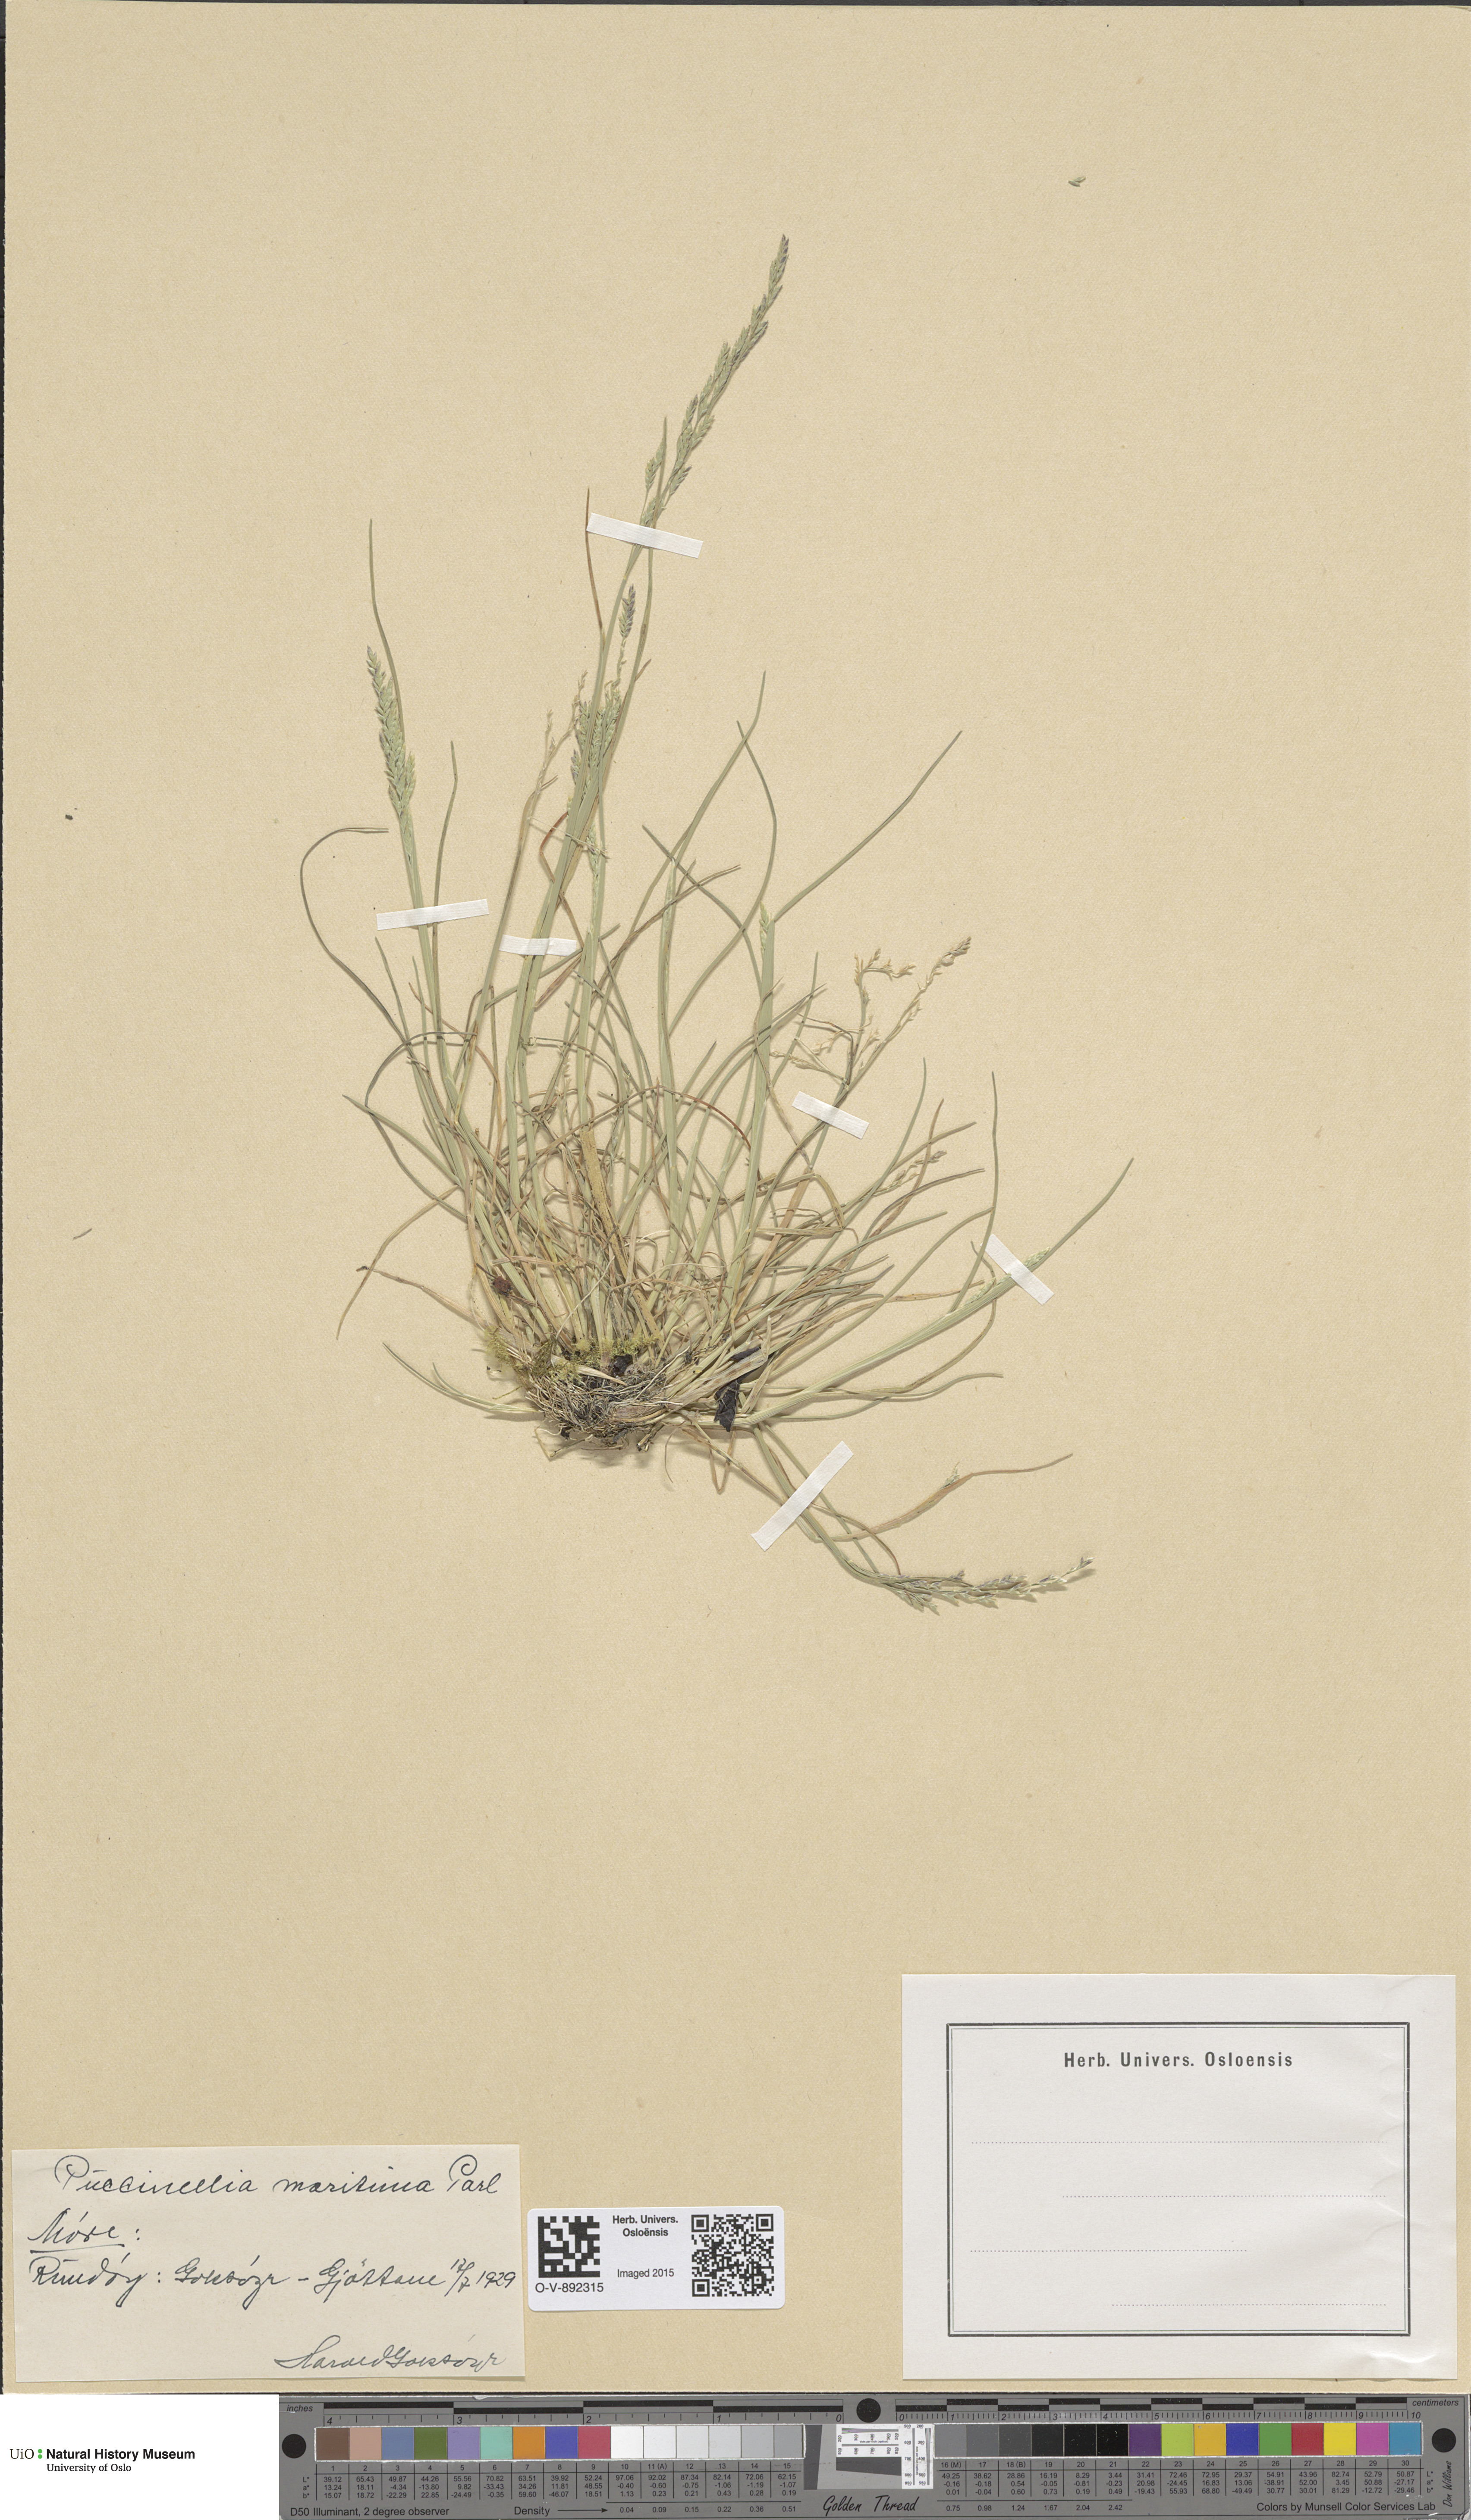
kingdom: Plantae
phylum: Tracheophyta
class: Liliopsida
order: Poales
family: Poaceae
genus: Puccinellia
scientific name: Puccinellia maritima
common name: Common saltmarsh grass
